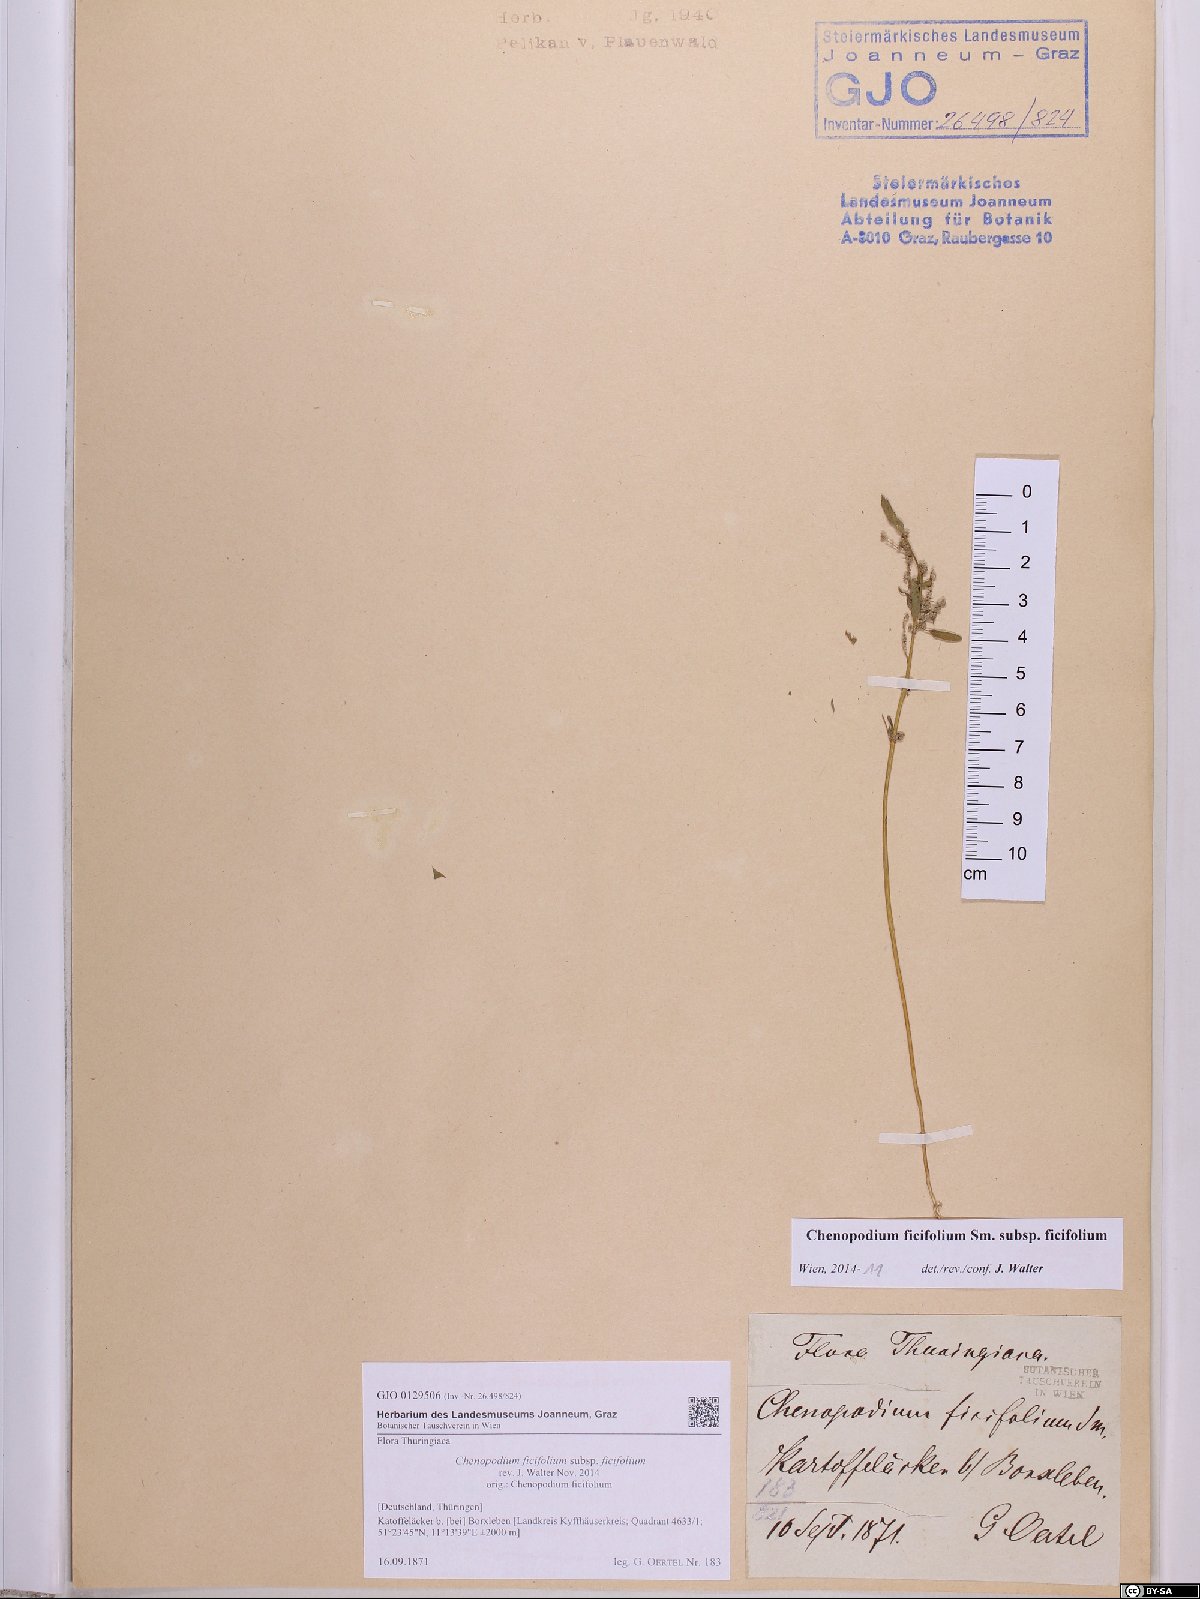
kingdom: Plantae
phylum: Tracheophyta
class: Magnoliopsida
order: Caryophyllales
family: Amaranthaceae
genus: Chenopodium
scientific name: Chenopodium ficifolium
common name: Fig-leaved goosefoot
